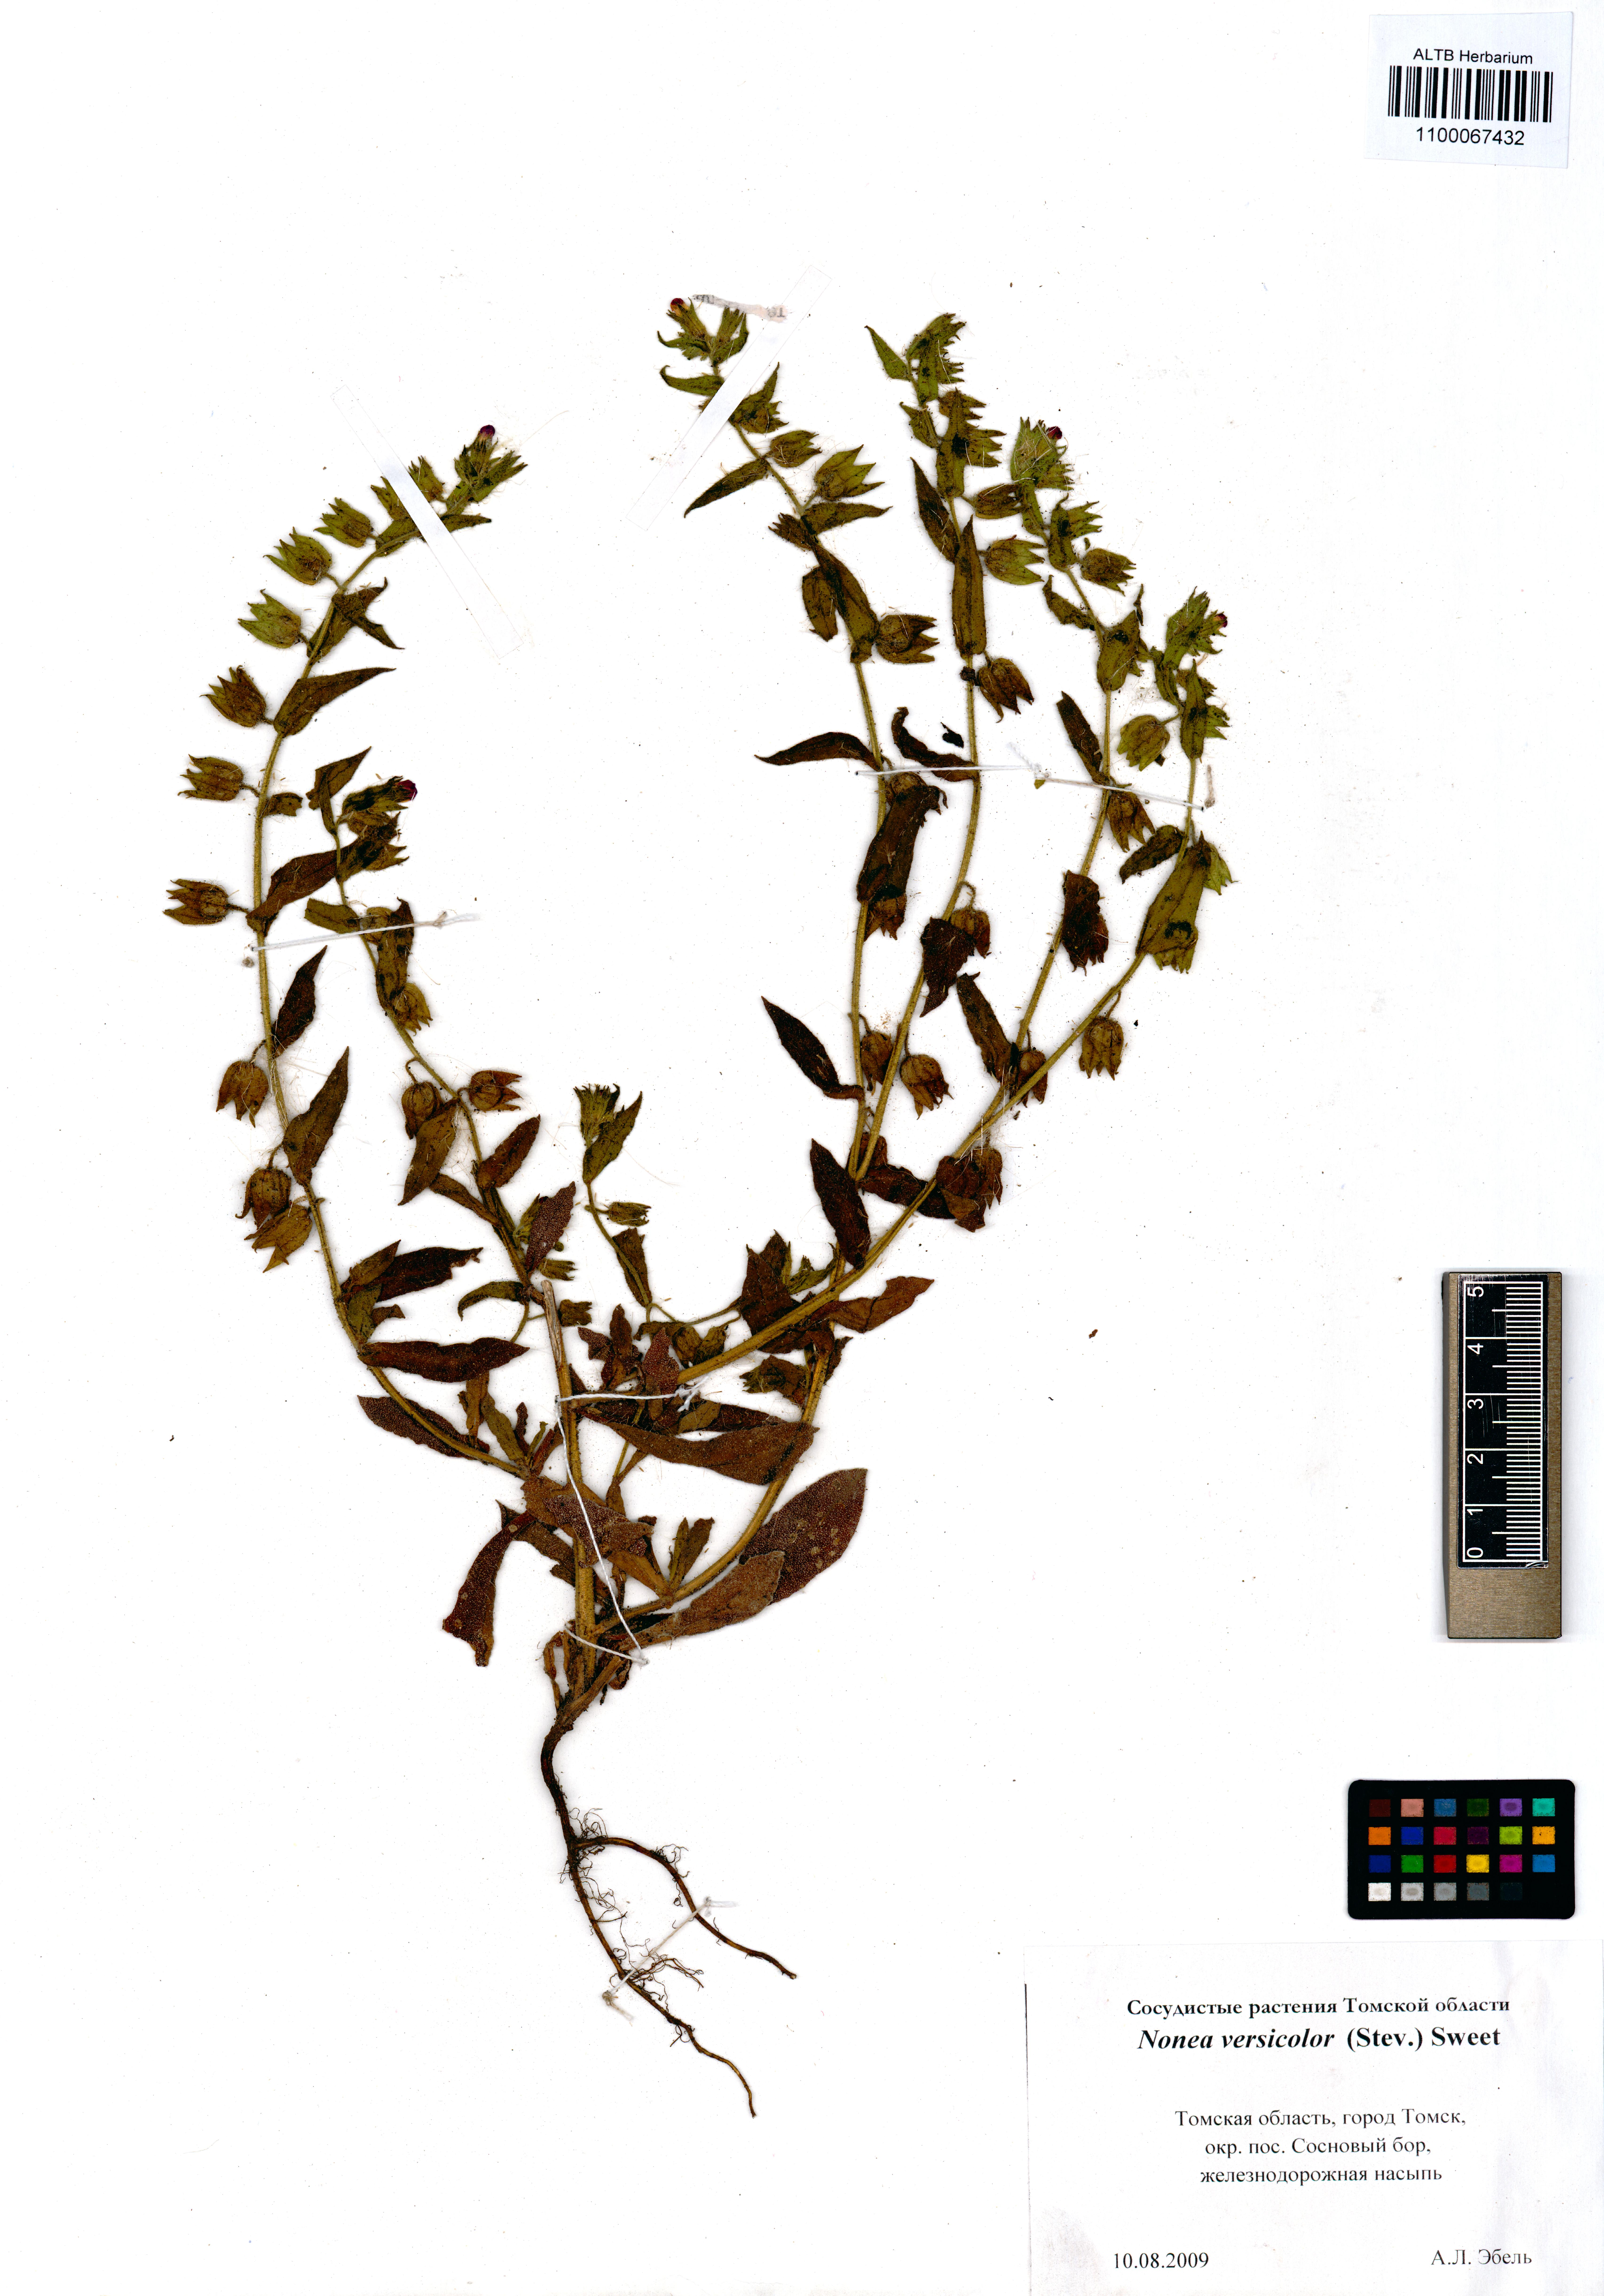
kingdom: Plantae
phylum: Tracheophyta
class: Magnoliopsida
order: Boraginales
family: Boraginaceae
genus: Nonea
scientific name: Nonea versicolor
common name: Varied monkswort
